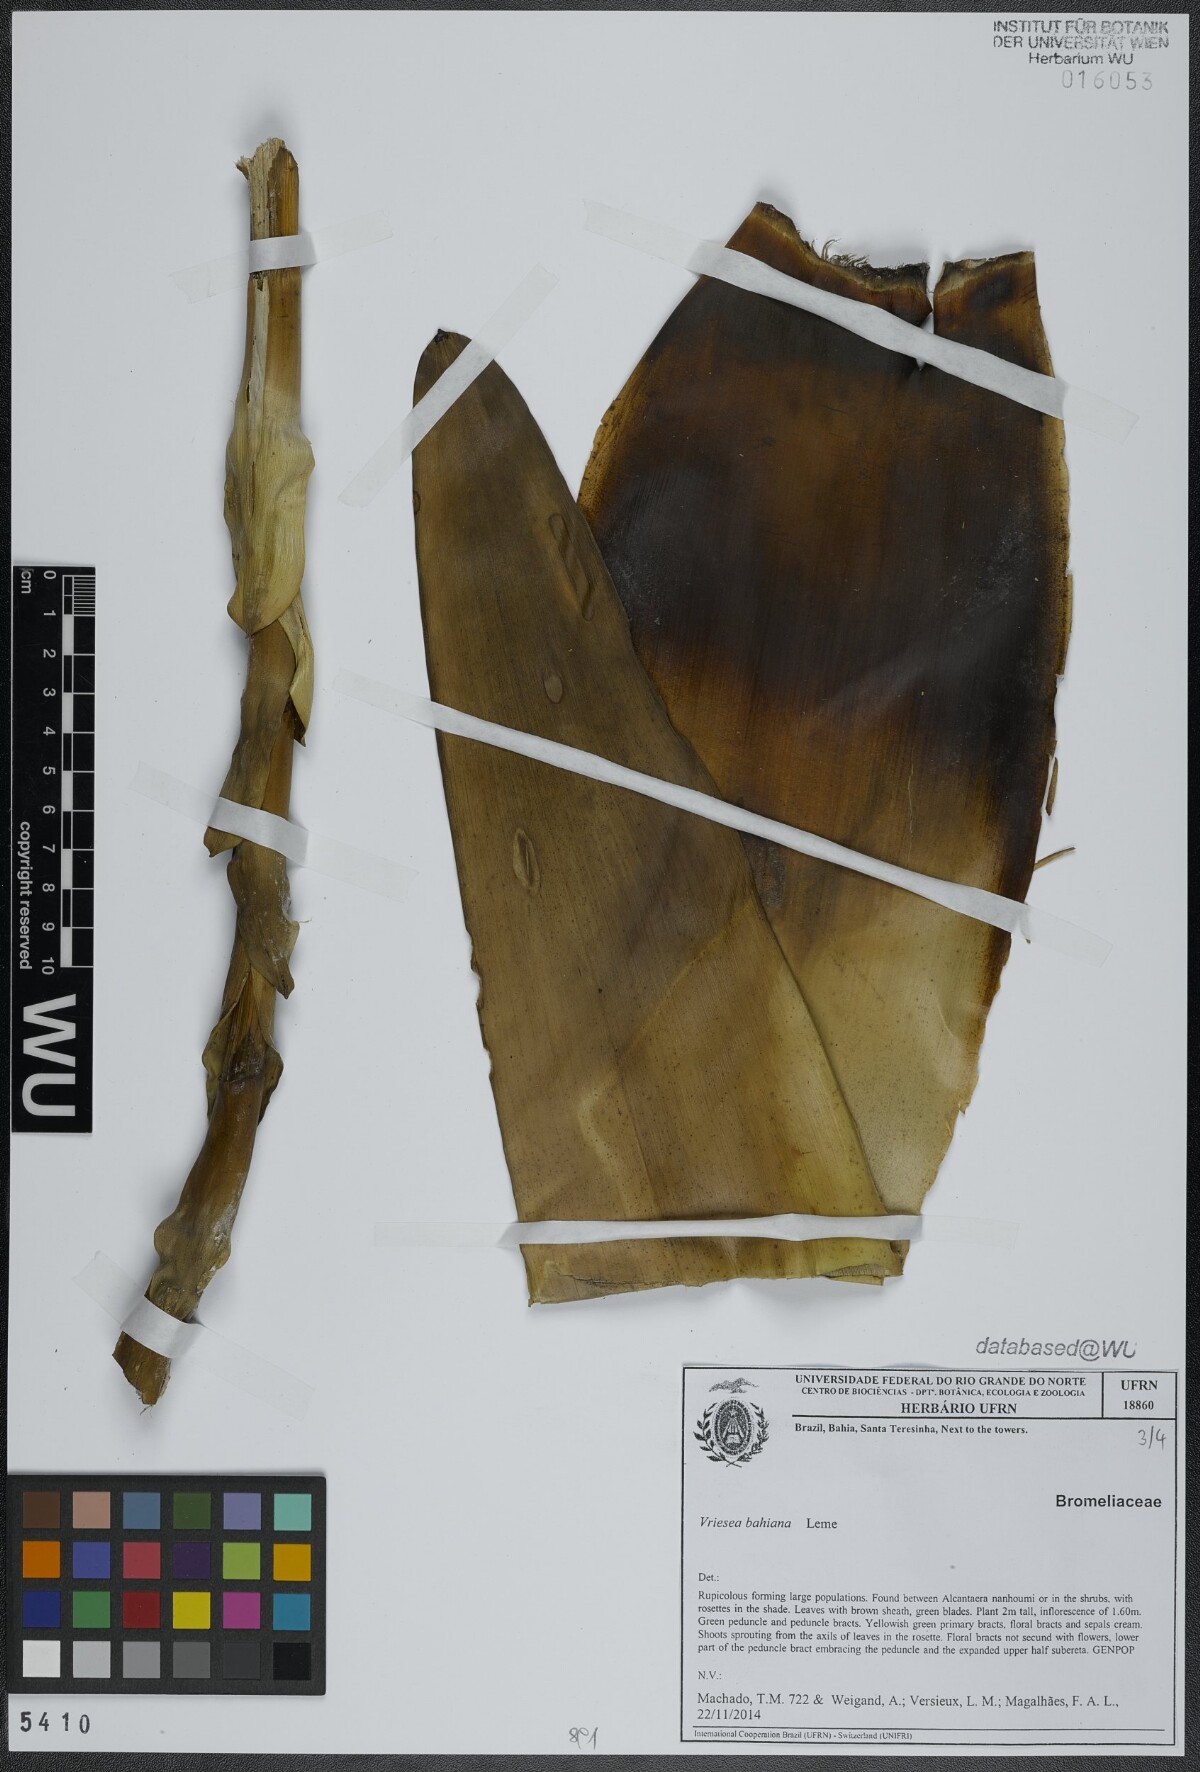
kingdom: Plantae
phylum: Tracheophyta
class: Liliopsida
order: Poales
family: Bromeliaceae
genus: Vriesea
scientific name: Vriesea bahiana
